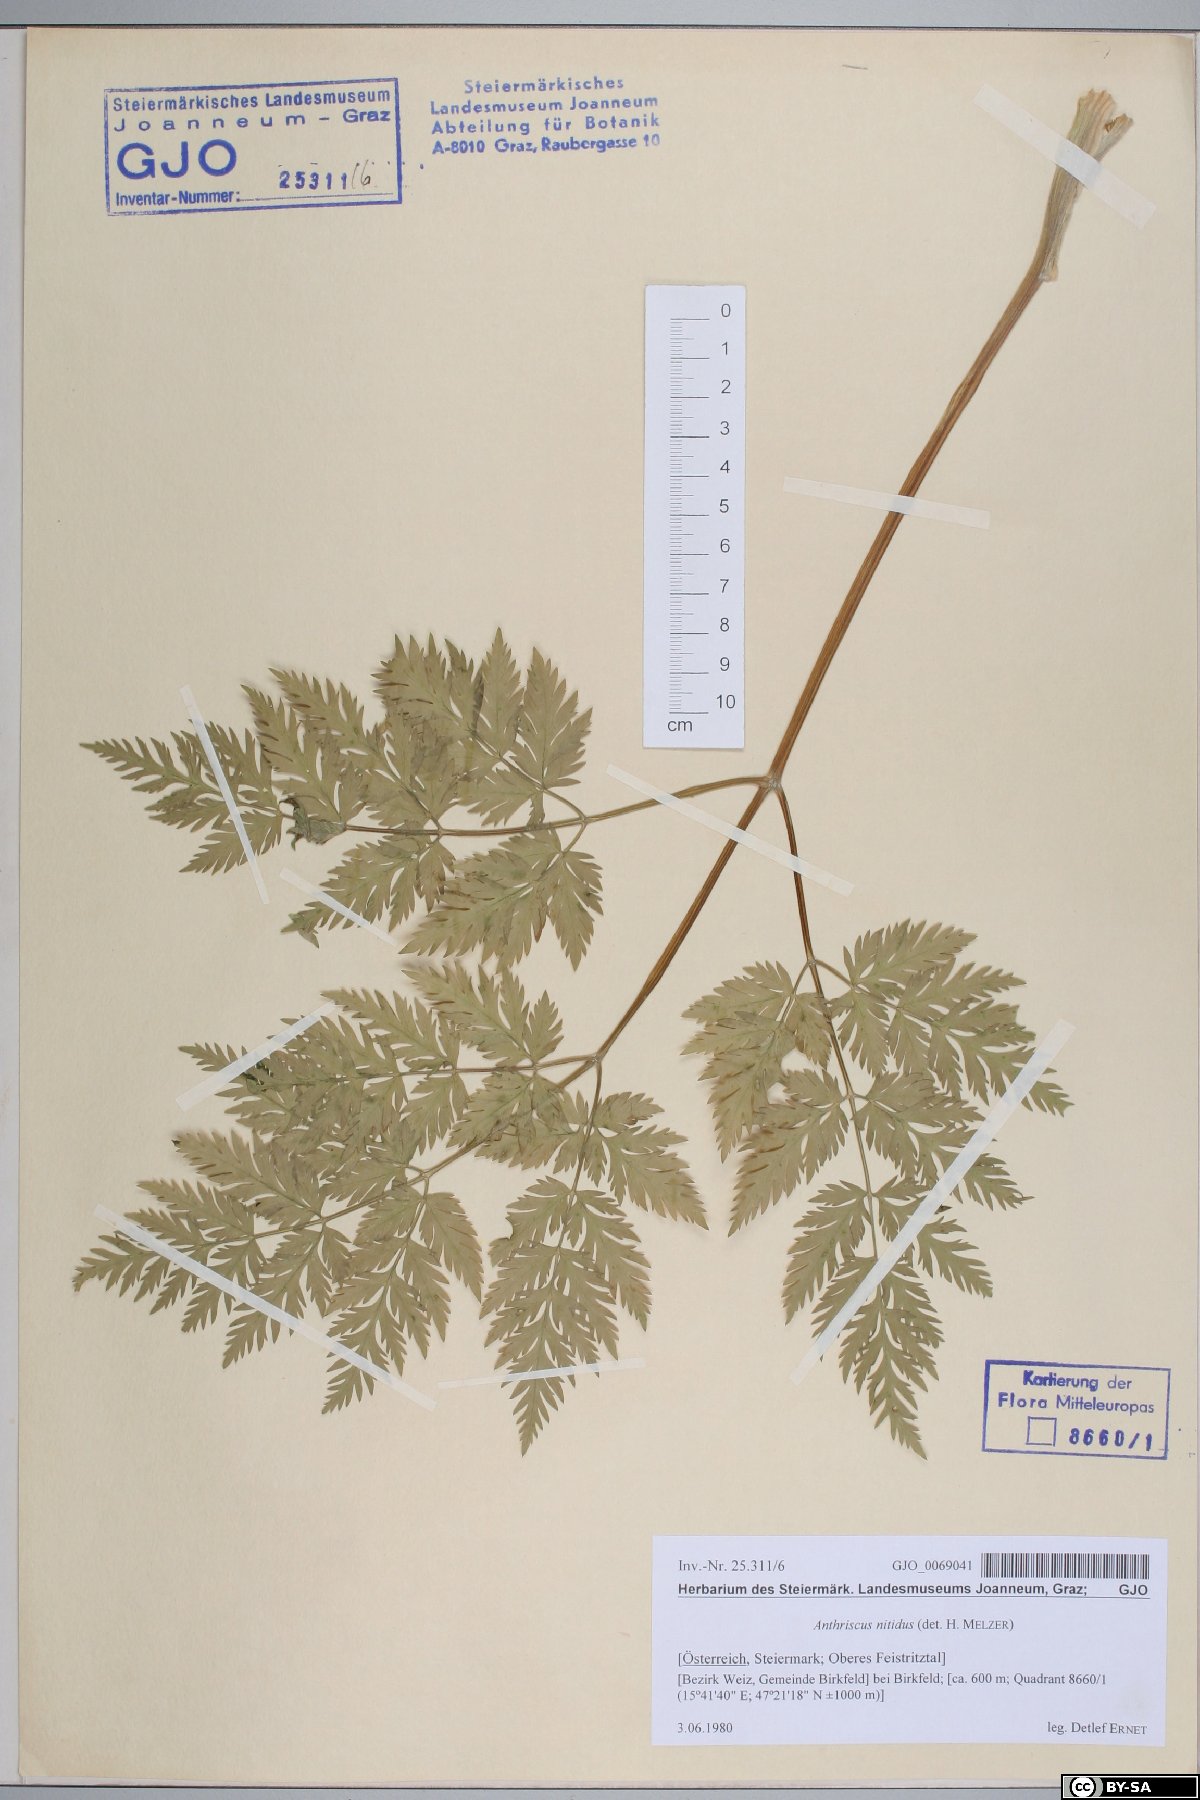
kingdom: Plantae
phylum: Tracheophyta
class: Magnoliopsida
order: Apiales
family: Apiaceae
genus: Anthriscus
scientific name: Anthriscus nitida
